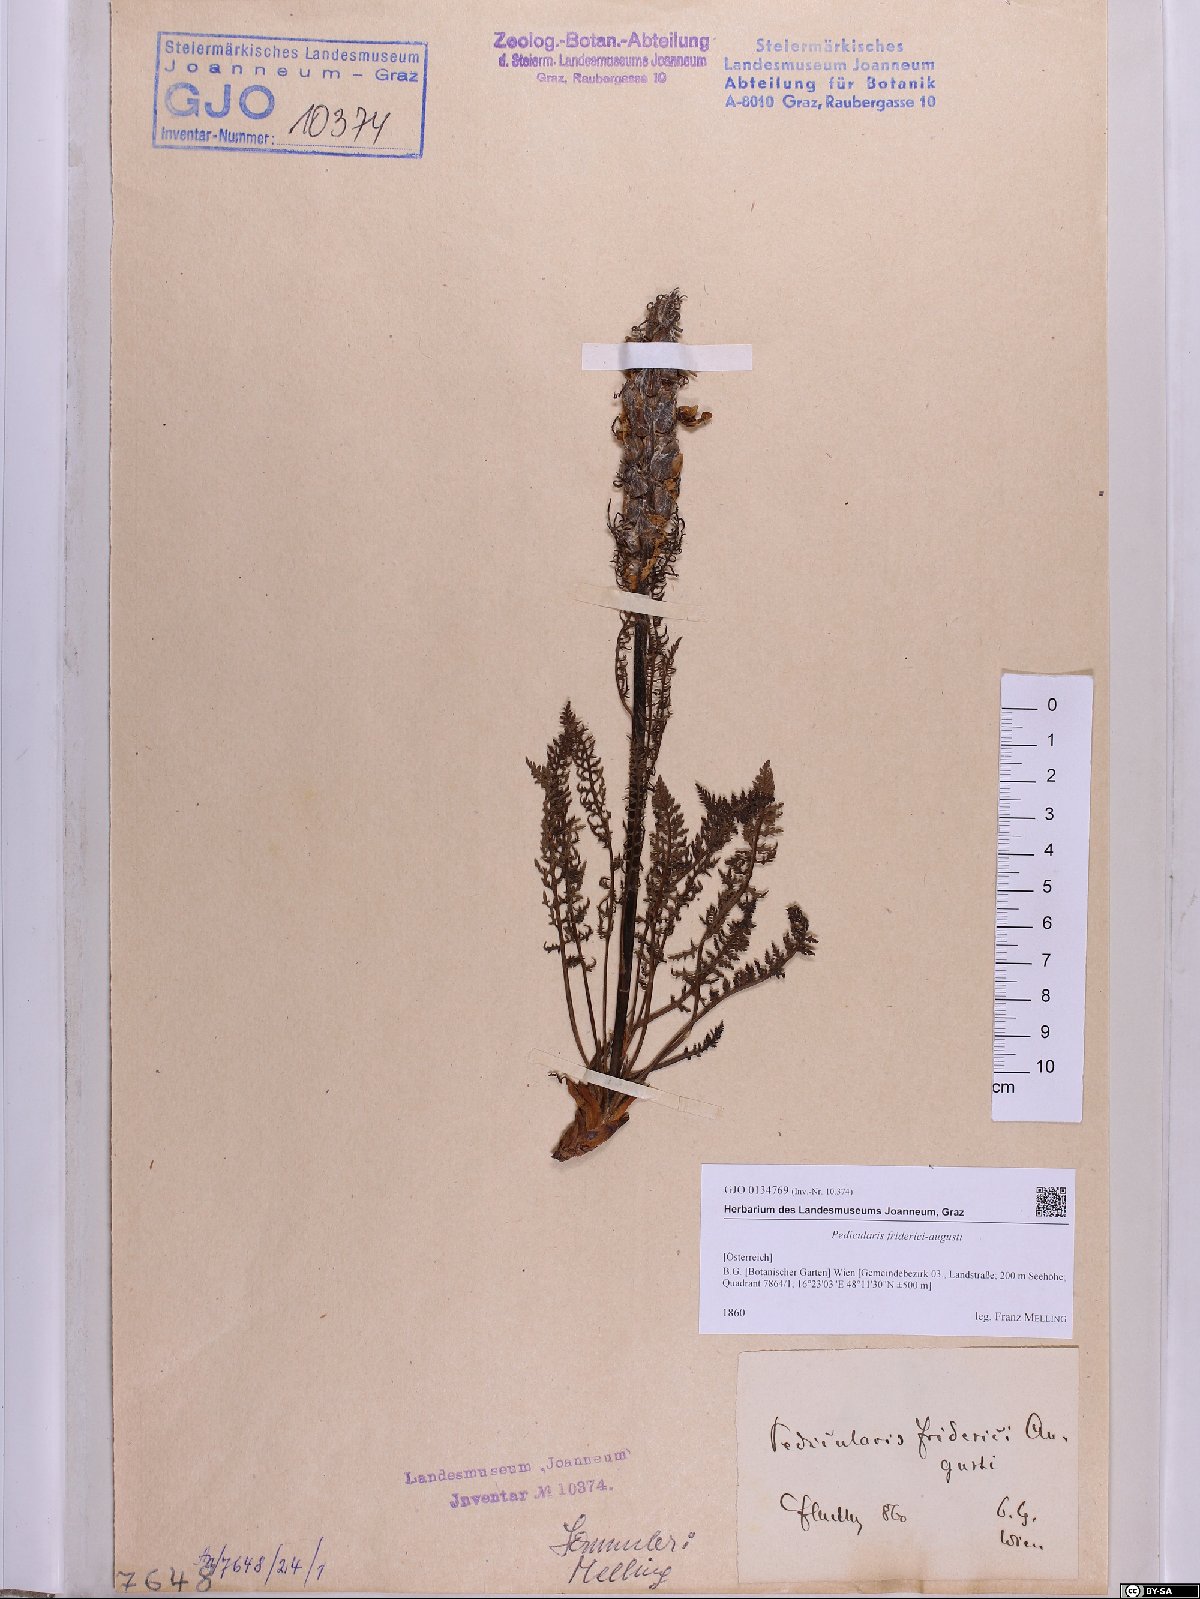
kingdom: Plantae
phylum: Tracheophyta
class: Magnoliopsida
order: Lamiales
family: Orobanchaceae
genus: Pedicularis
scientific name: Pedicularis friderici-augusti
